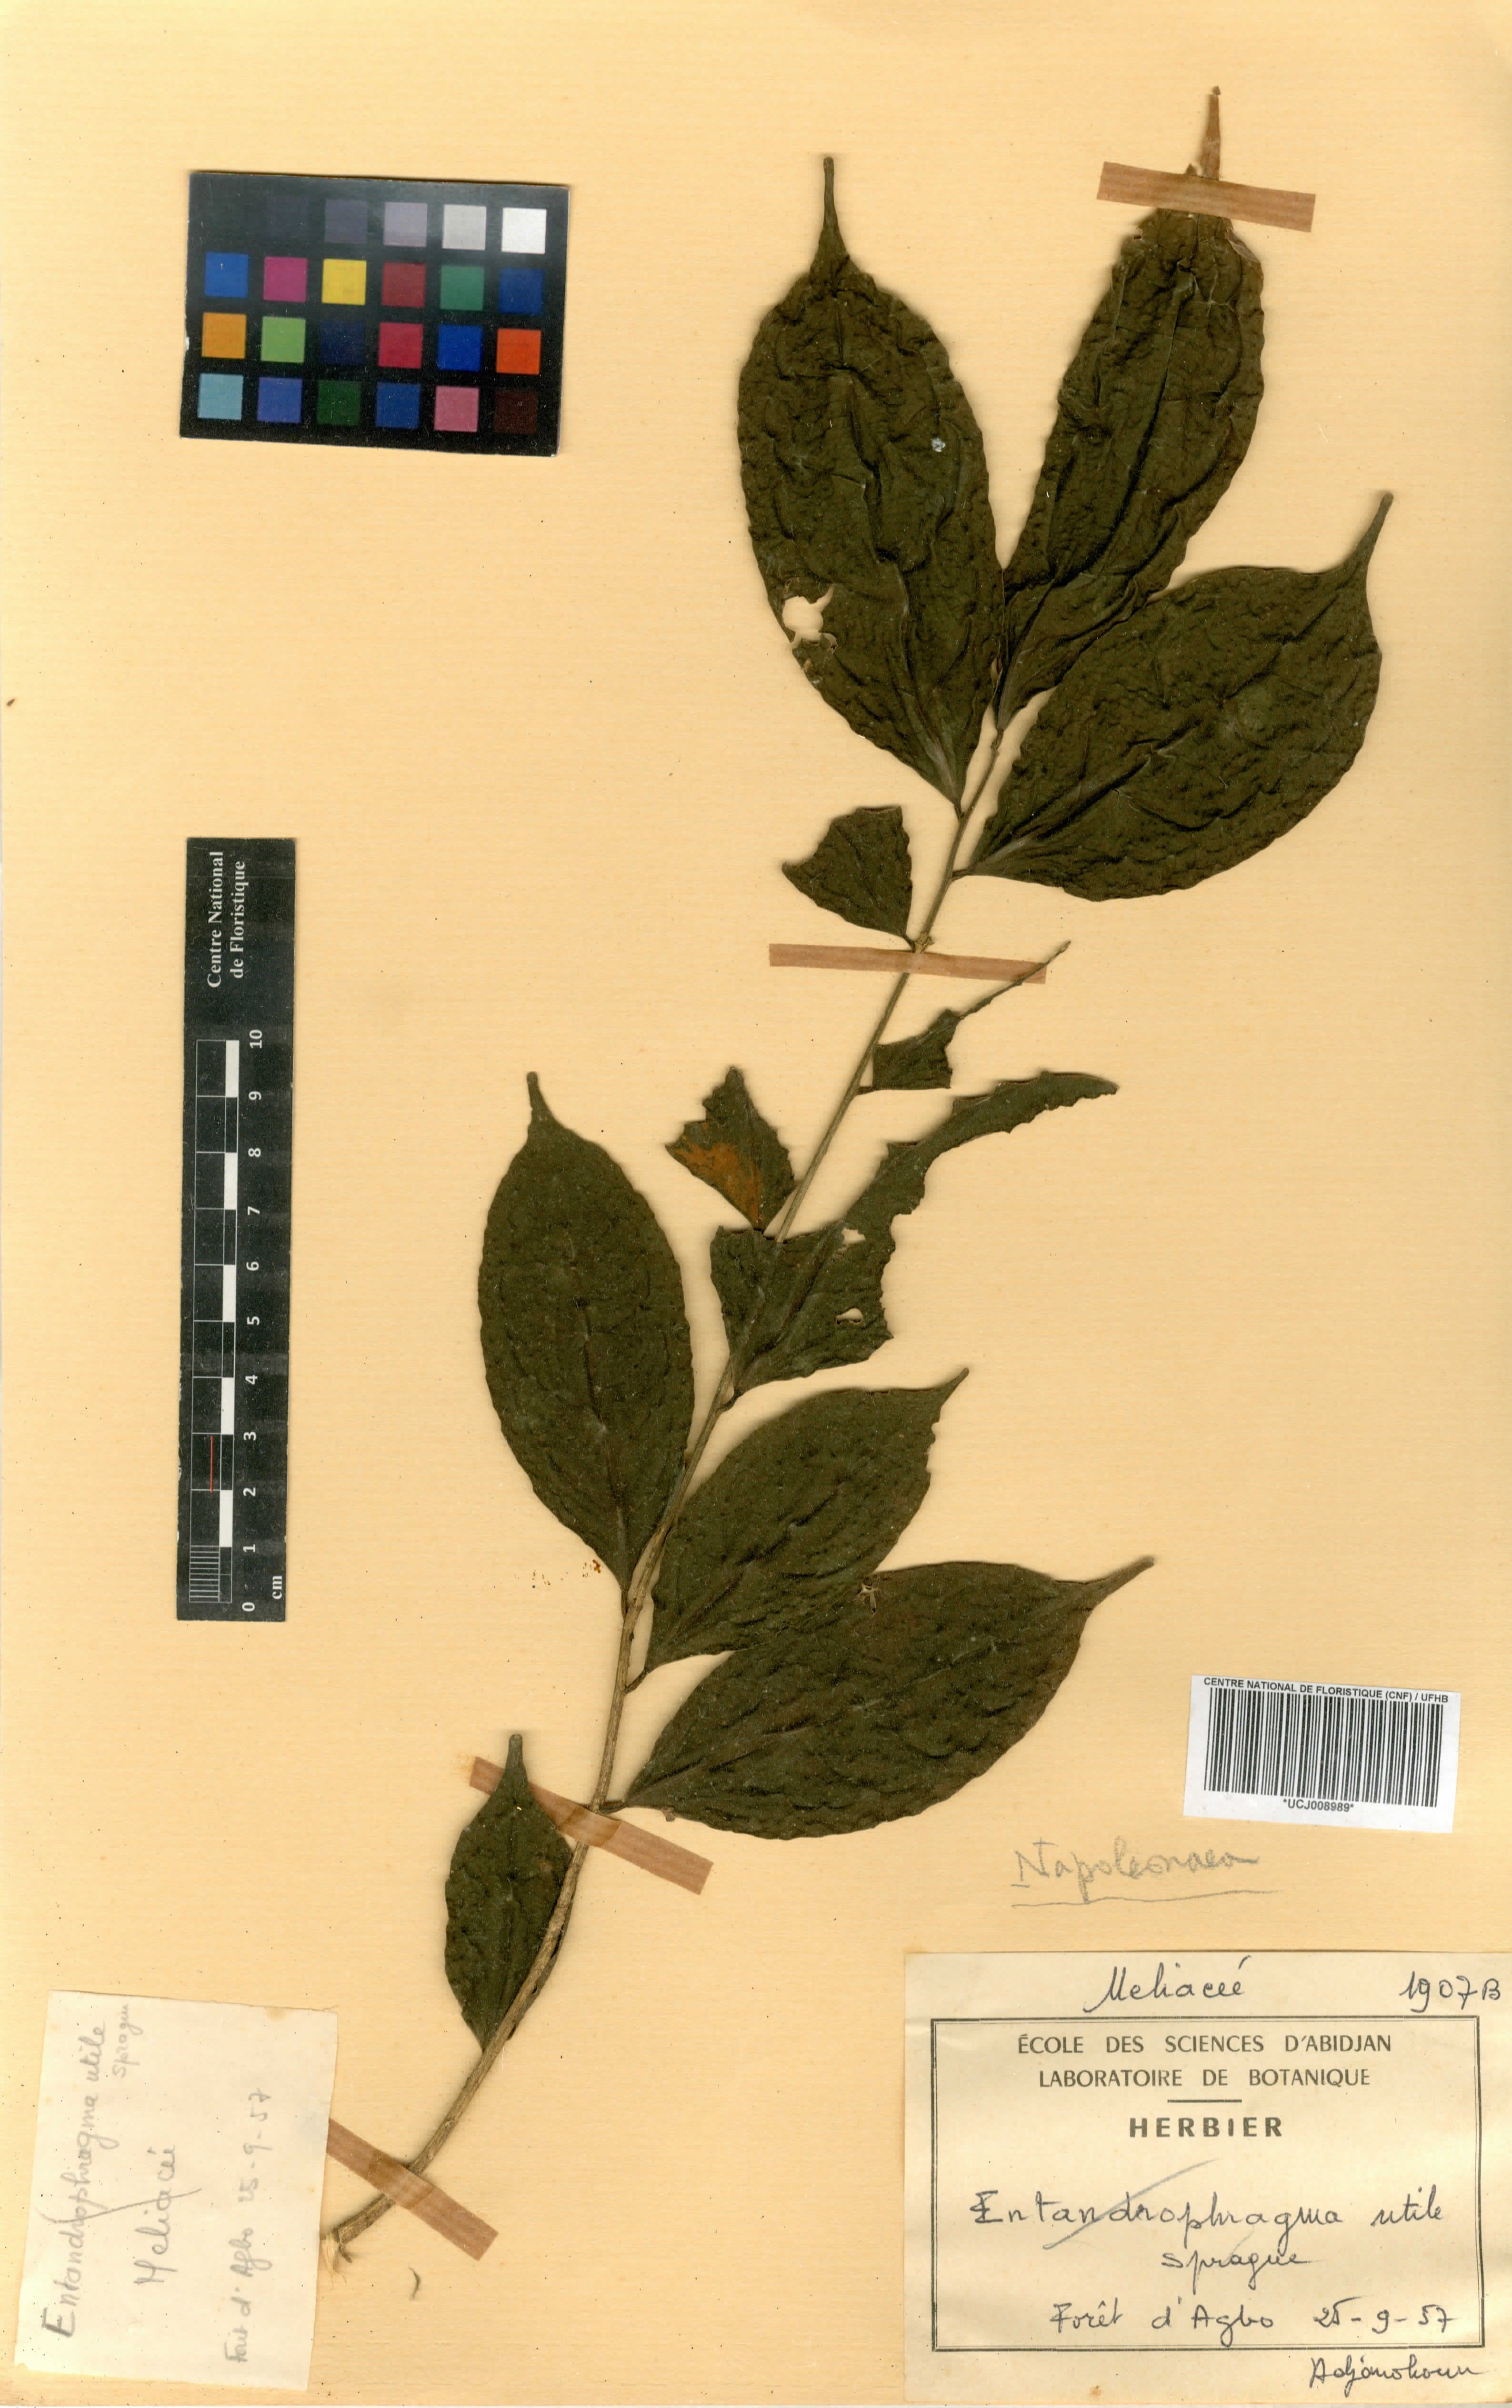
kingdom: Plantae
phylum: Tracheophyta
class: Magnoliopsida
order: Sapindales
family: Meliaceae
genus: Entandrophragma
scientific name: Entandrophragma utile
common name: Utile
